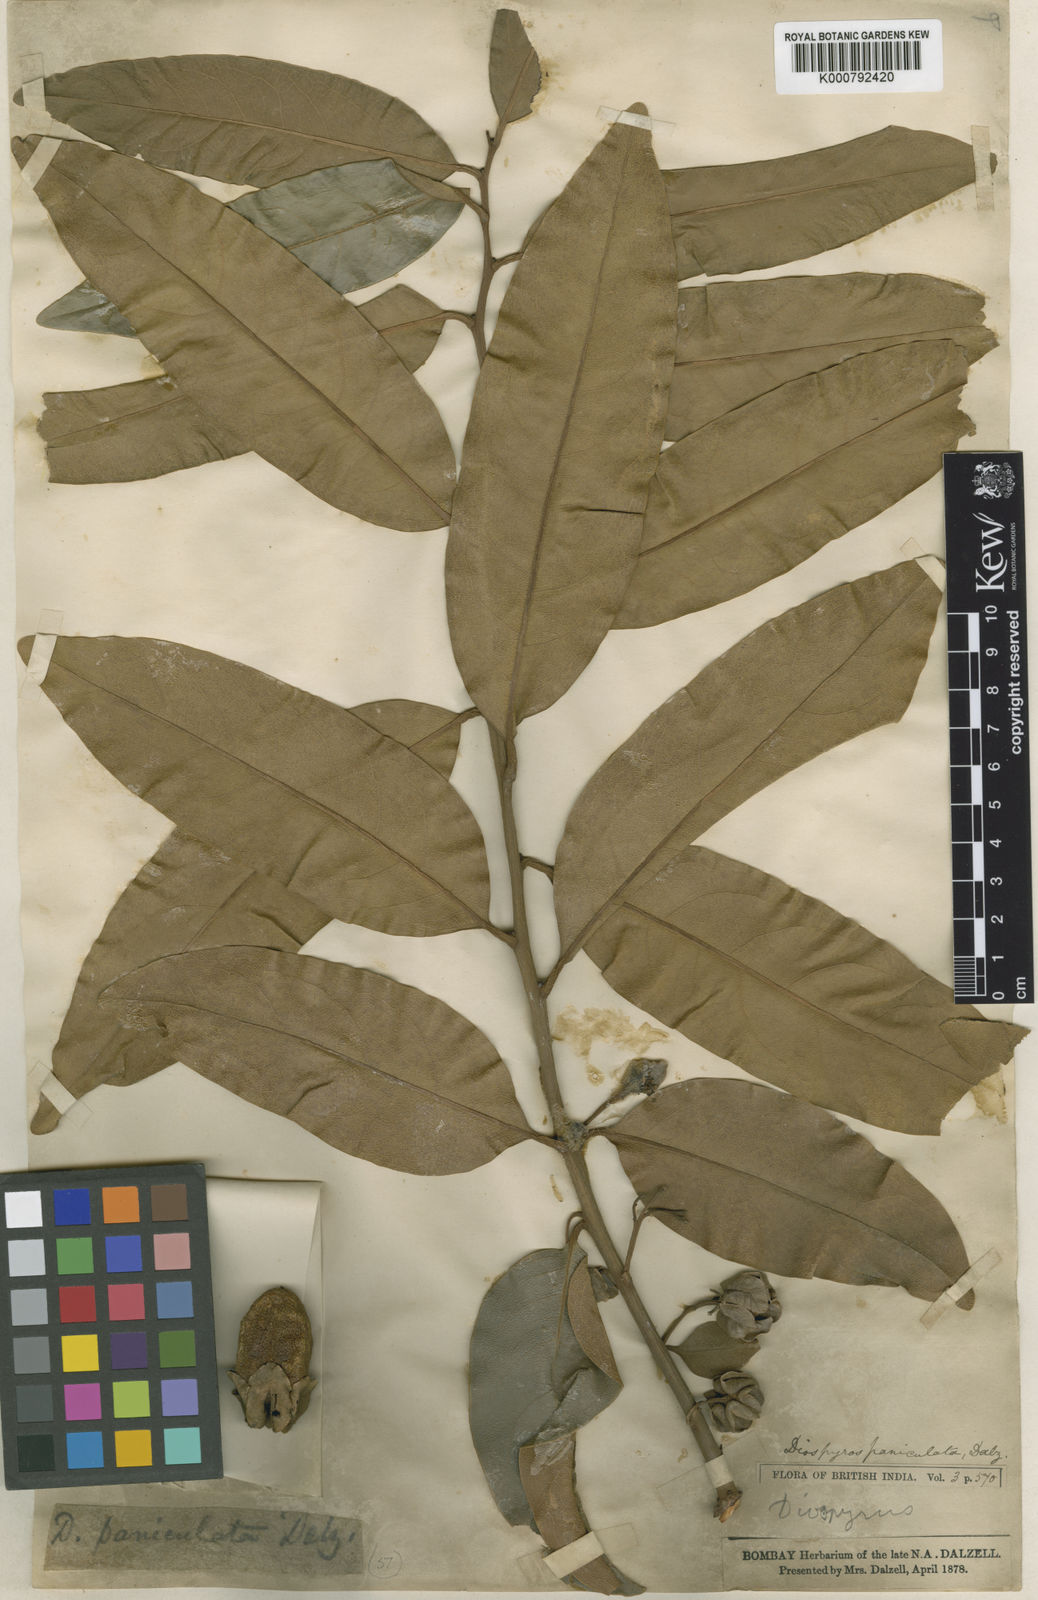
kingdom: Plantae
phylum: Tracheophyta
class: Magnoliopsida
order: Ericales
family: Ebenaceae
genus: Diospyros
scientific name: Diospyros paniculata
